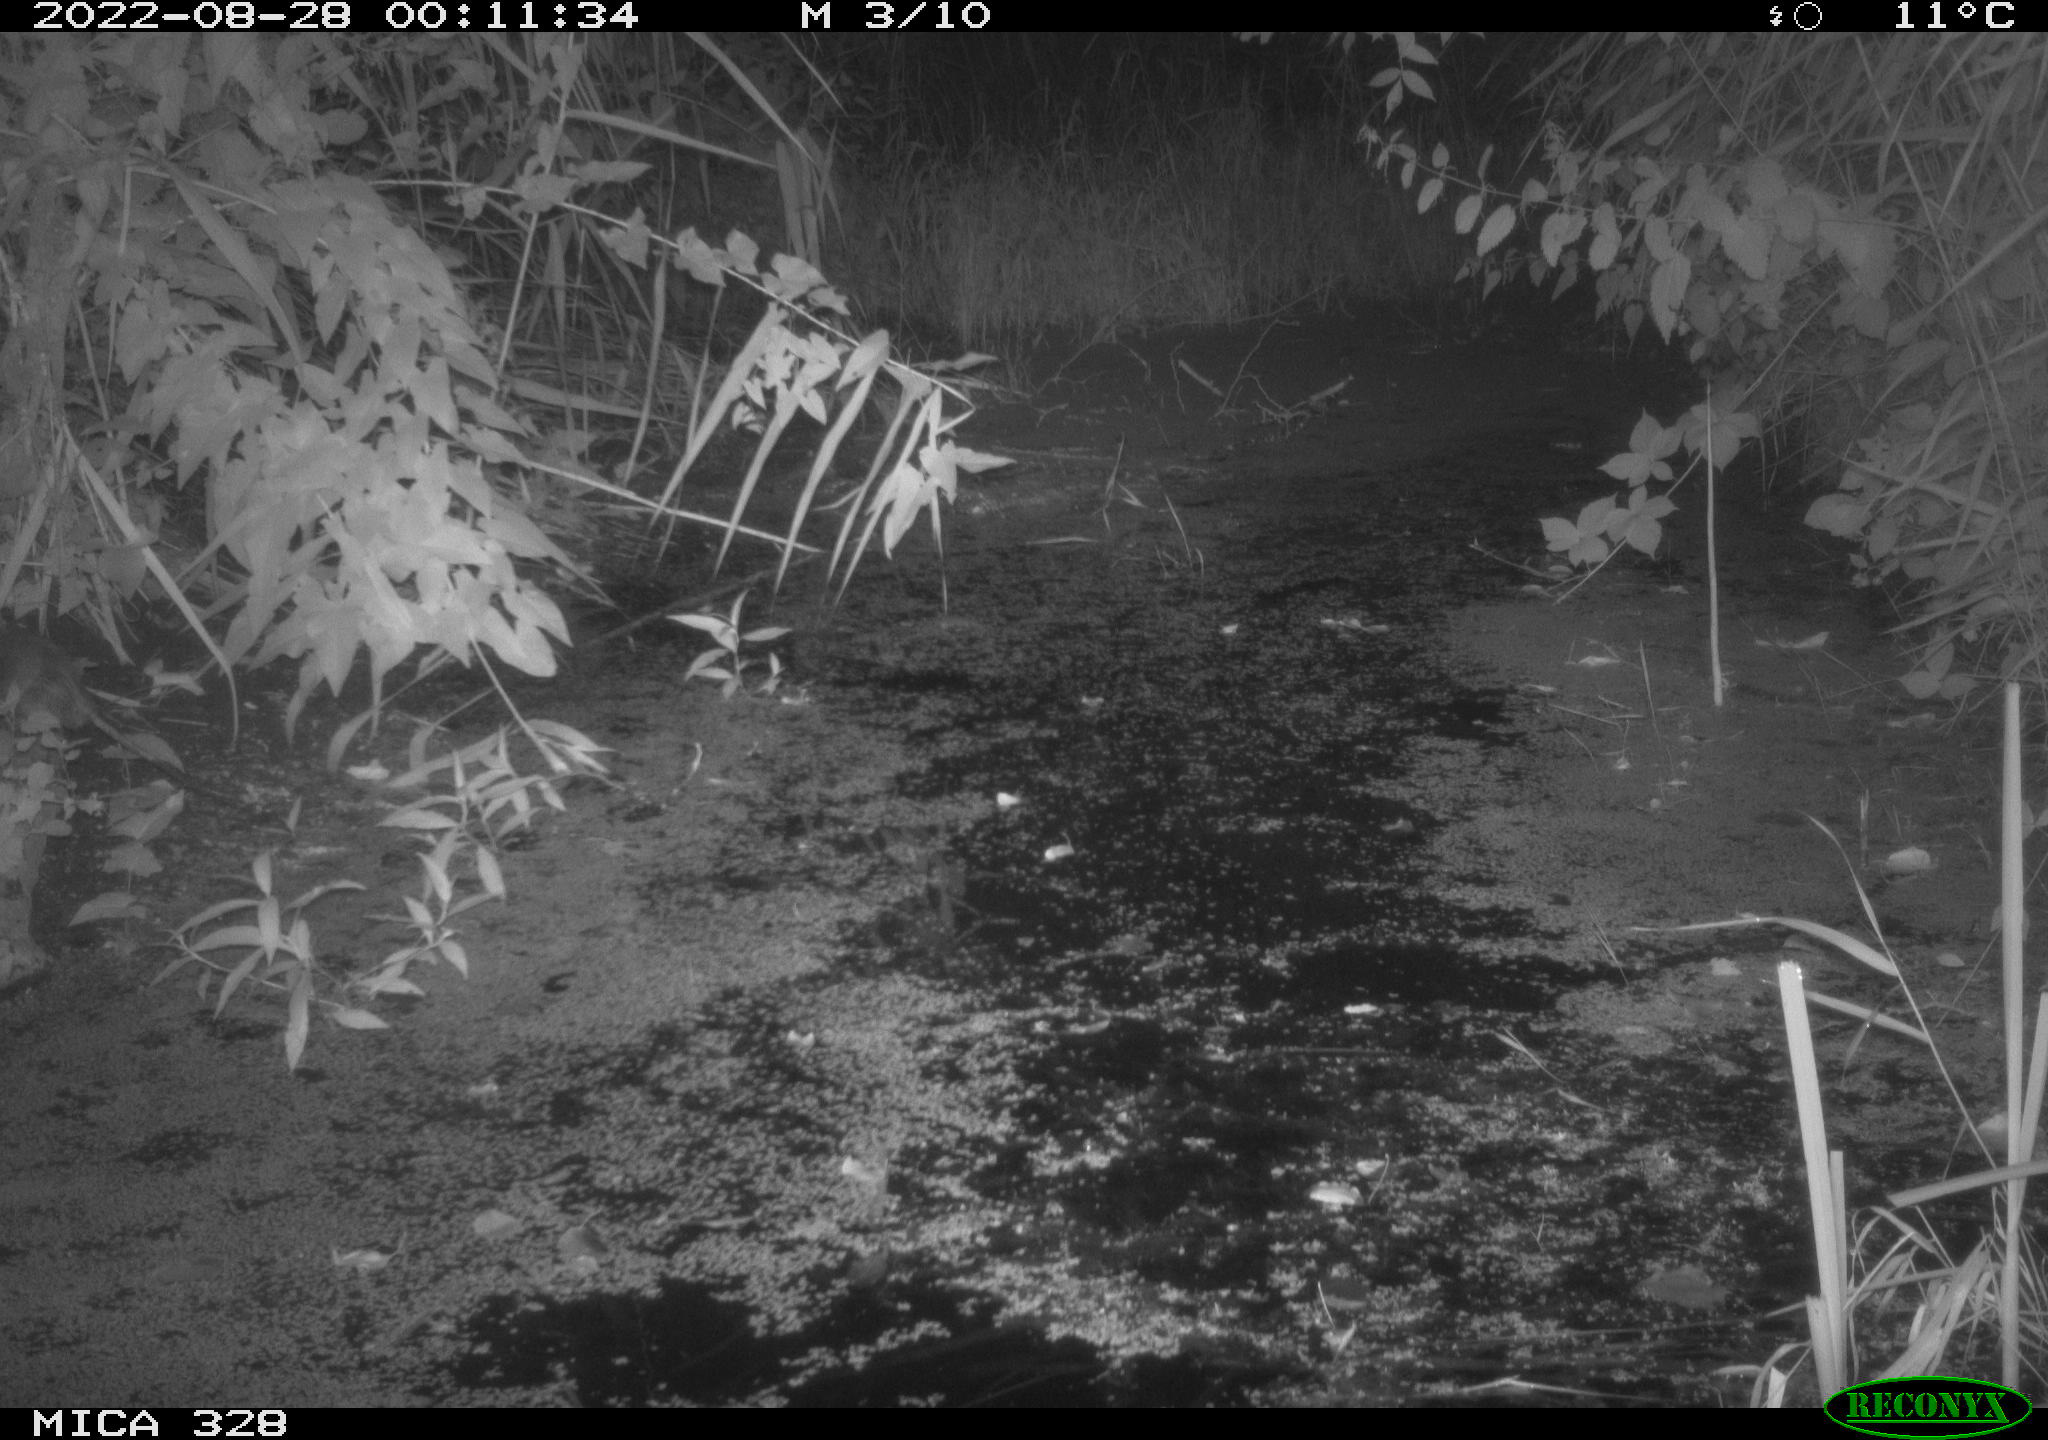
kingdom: Animalia
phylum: Chordata
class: Mammalia
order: Rodentia
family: Muridae
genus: Rattus
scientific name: Rattus norvegicus
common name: Brown rat
